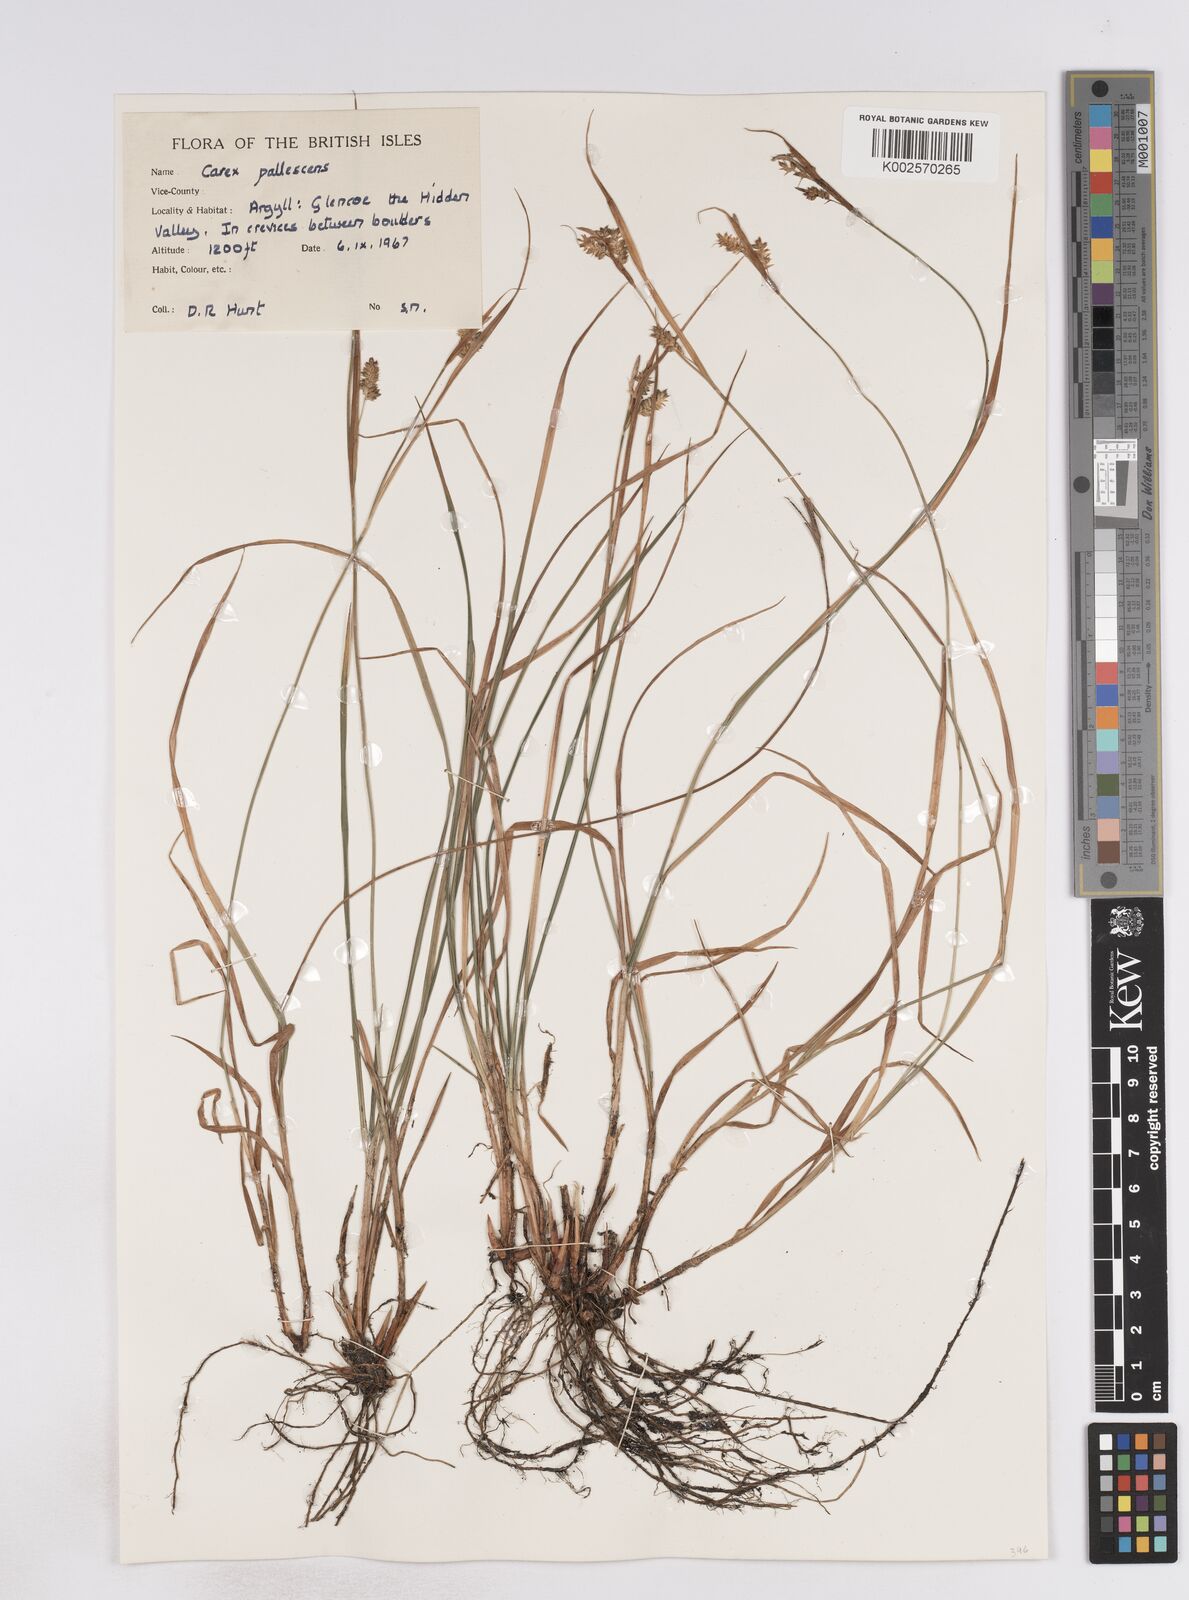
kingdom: Plantae
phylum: Tracheophyta
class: Liliopsida
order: Poales
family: Cyperaceae
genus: Carex
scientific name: Carex pallescens
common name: Pale sedge
